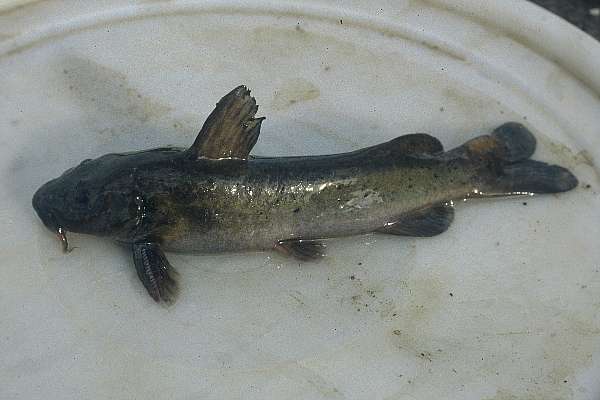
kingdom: Animalia
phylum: Chordata
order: Siluriformes
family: Austroglanididae
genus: Austroglanis
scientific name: Austroglanis sclateri
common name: Rock catfish
